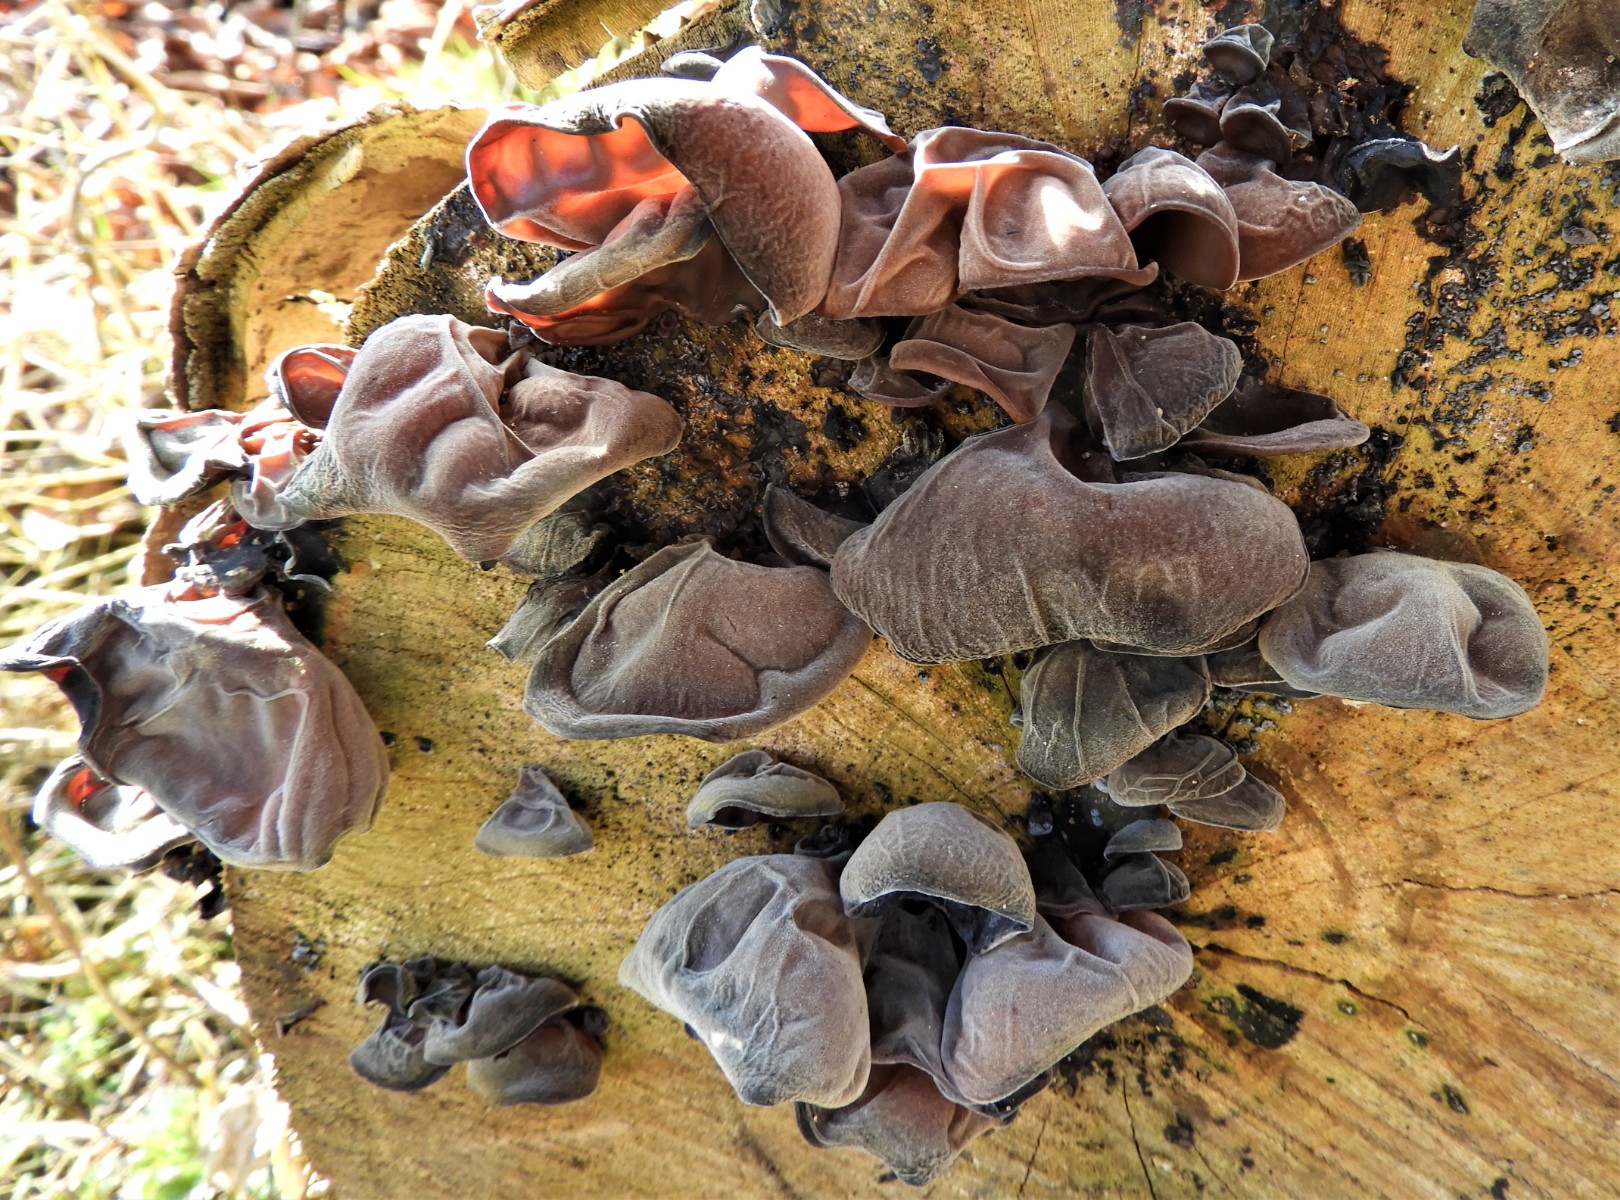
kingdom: Fungi
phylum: Basidiomycota
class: Agaricomycetes
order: Auriculariales
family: Auriculariaceae
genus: Auricularia
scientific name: Auricularia auricula-judae
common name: almindelig judasøre
